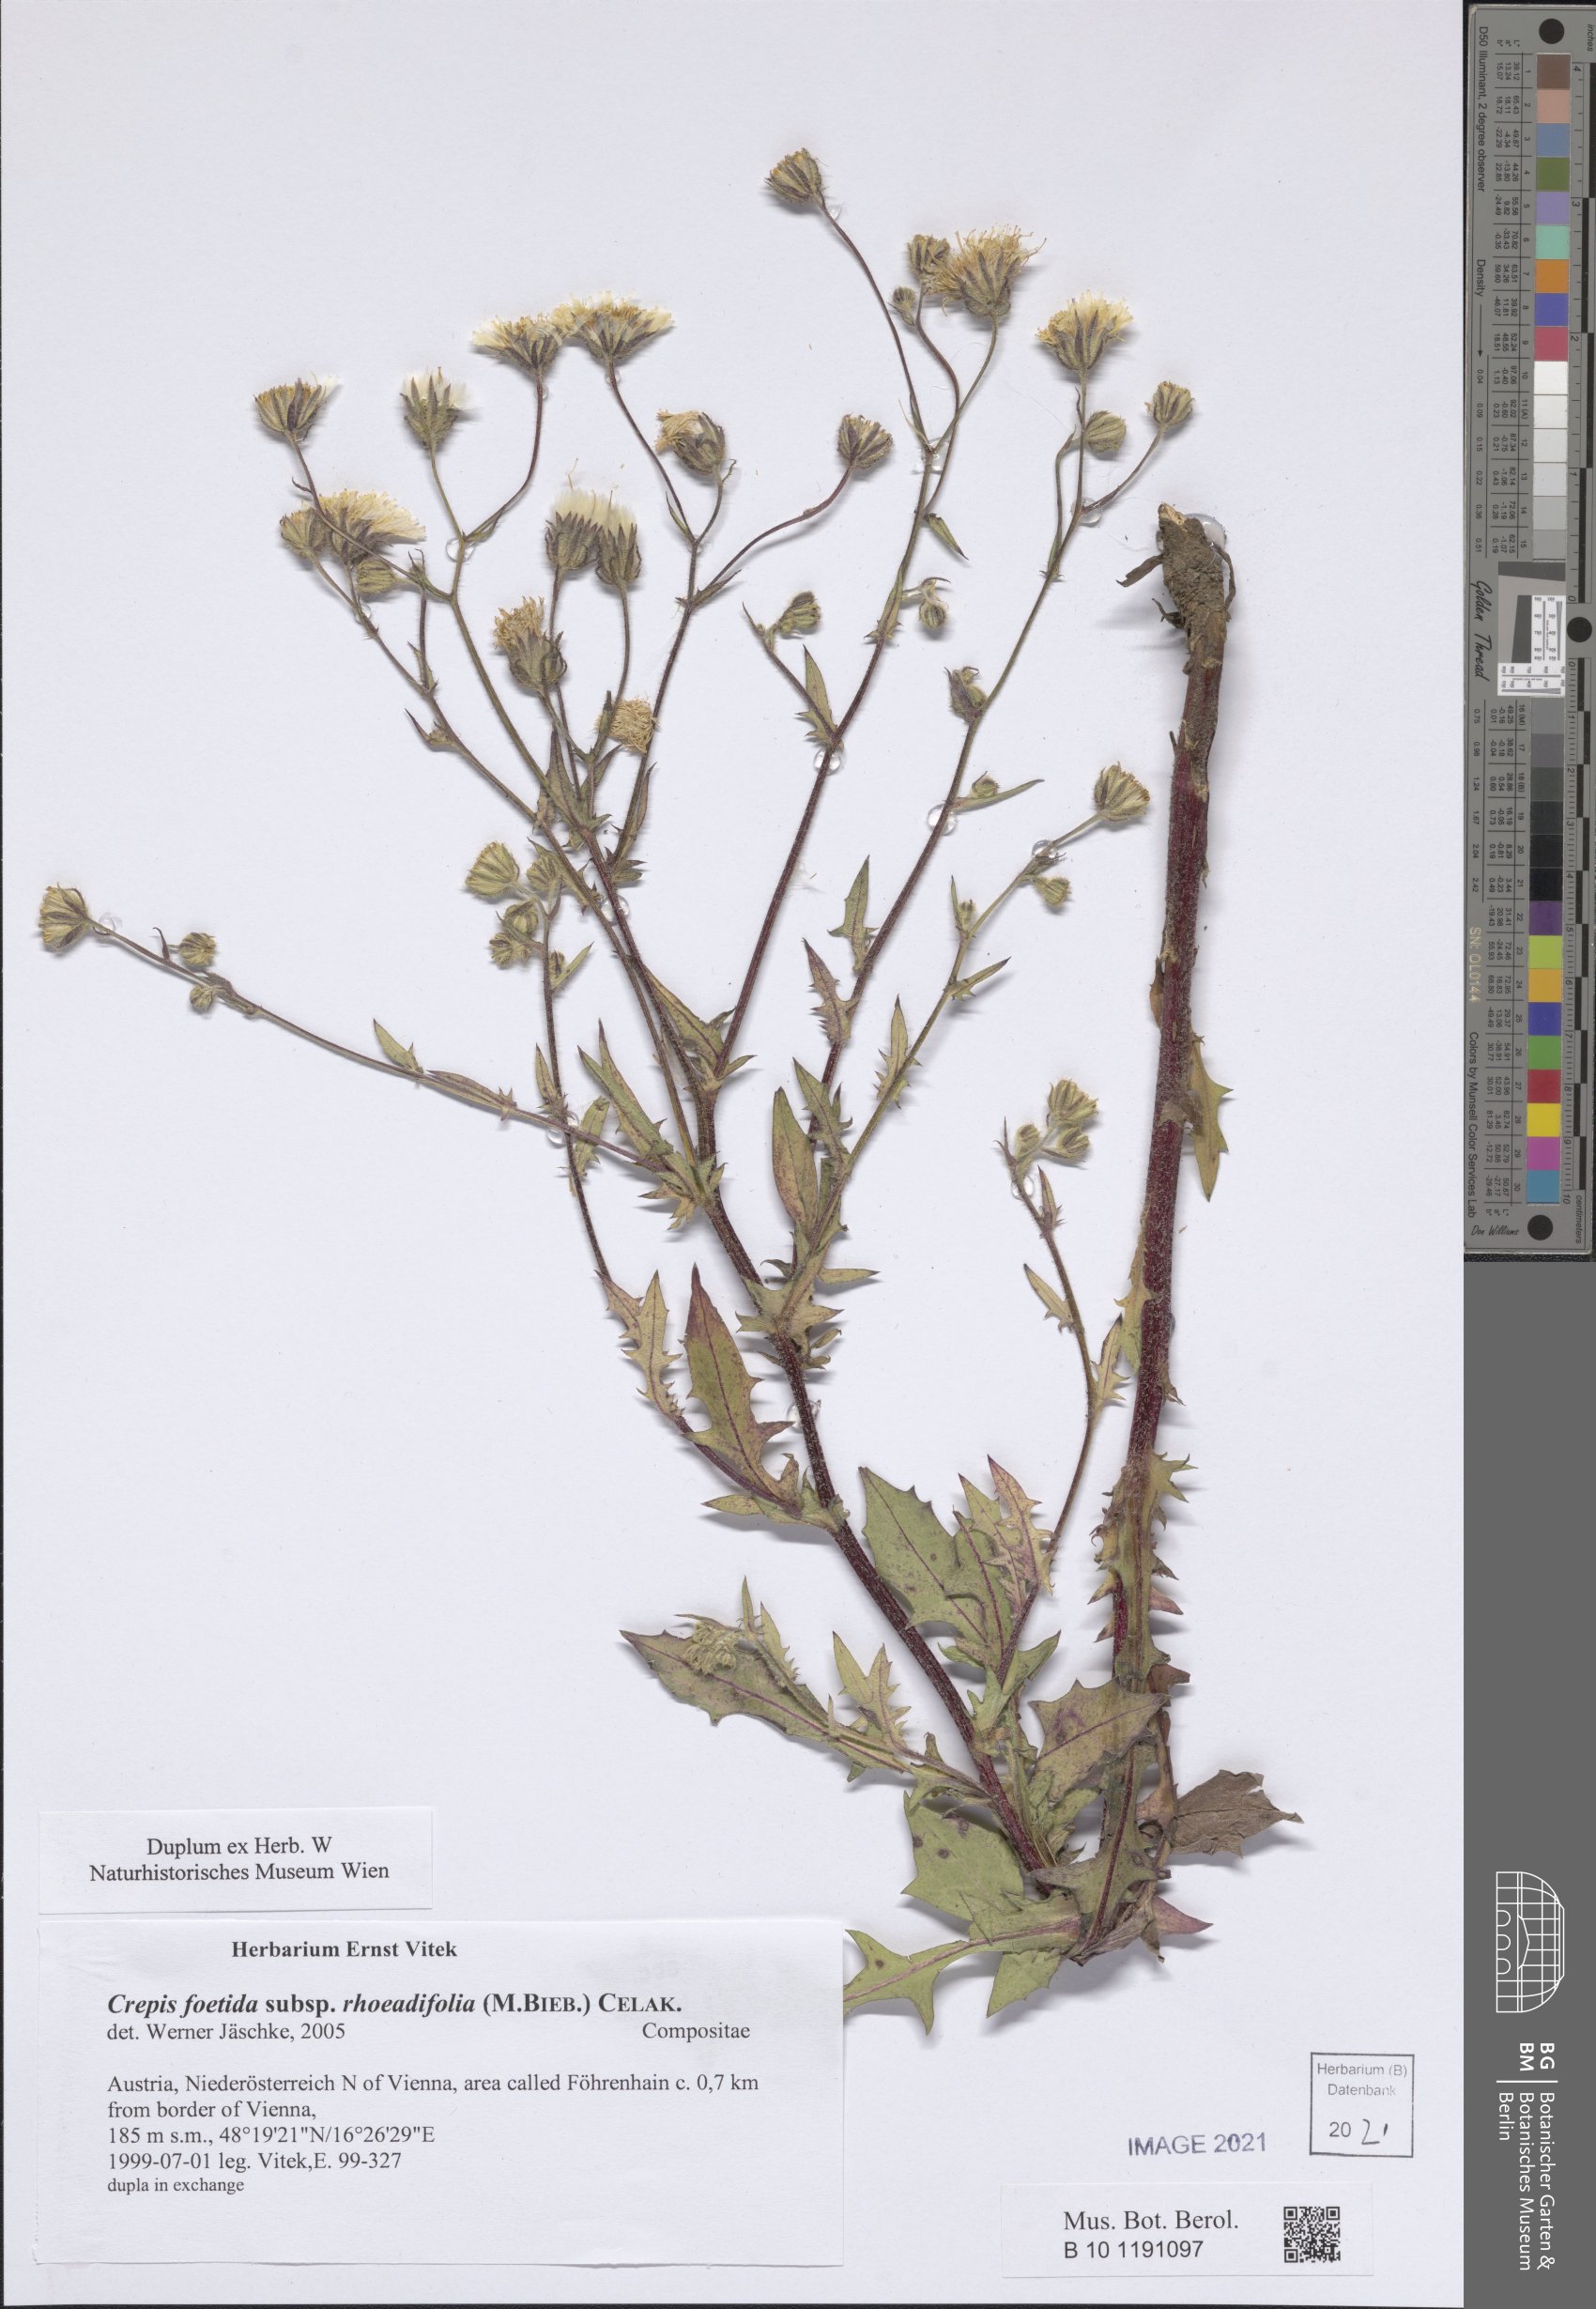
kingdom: Plantae
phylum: Tracheophyta
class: Magnoliopsida
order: Asterales
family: Asteraceae
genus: Crepis
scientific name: Crepis foetida
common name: Stinking hawk's-beard
